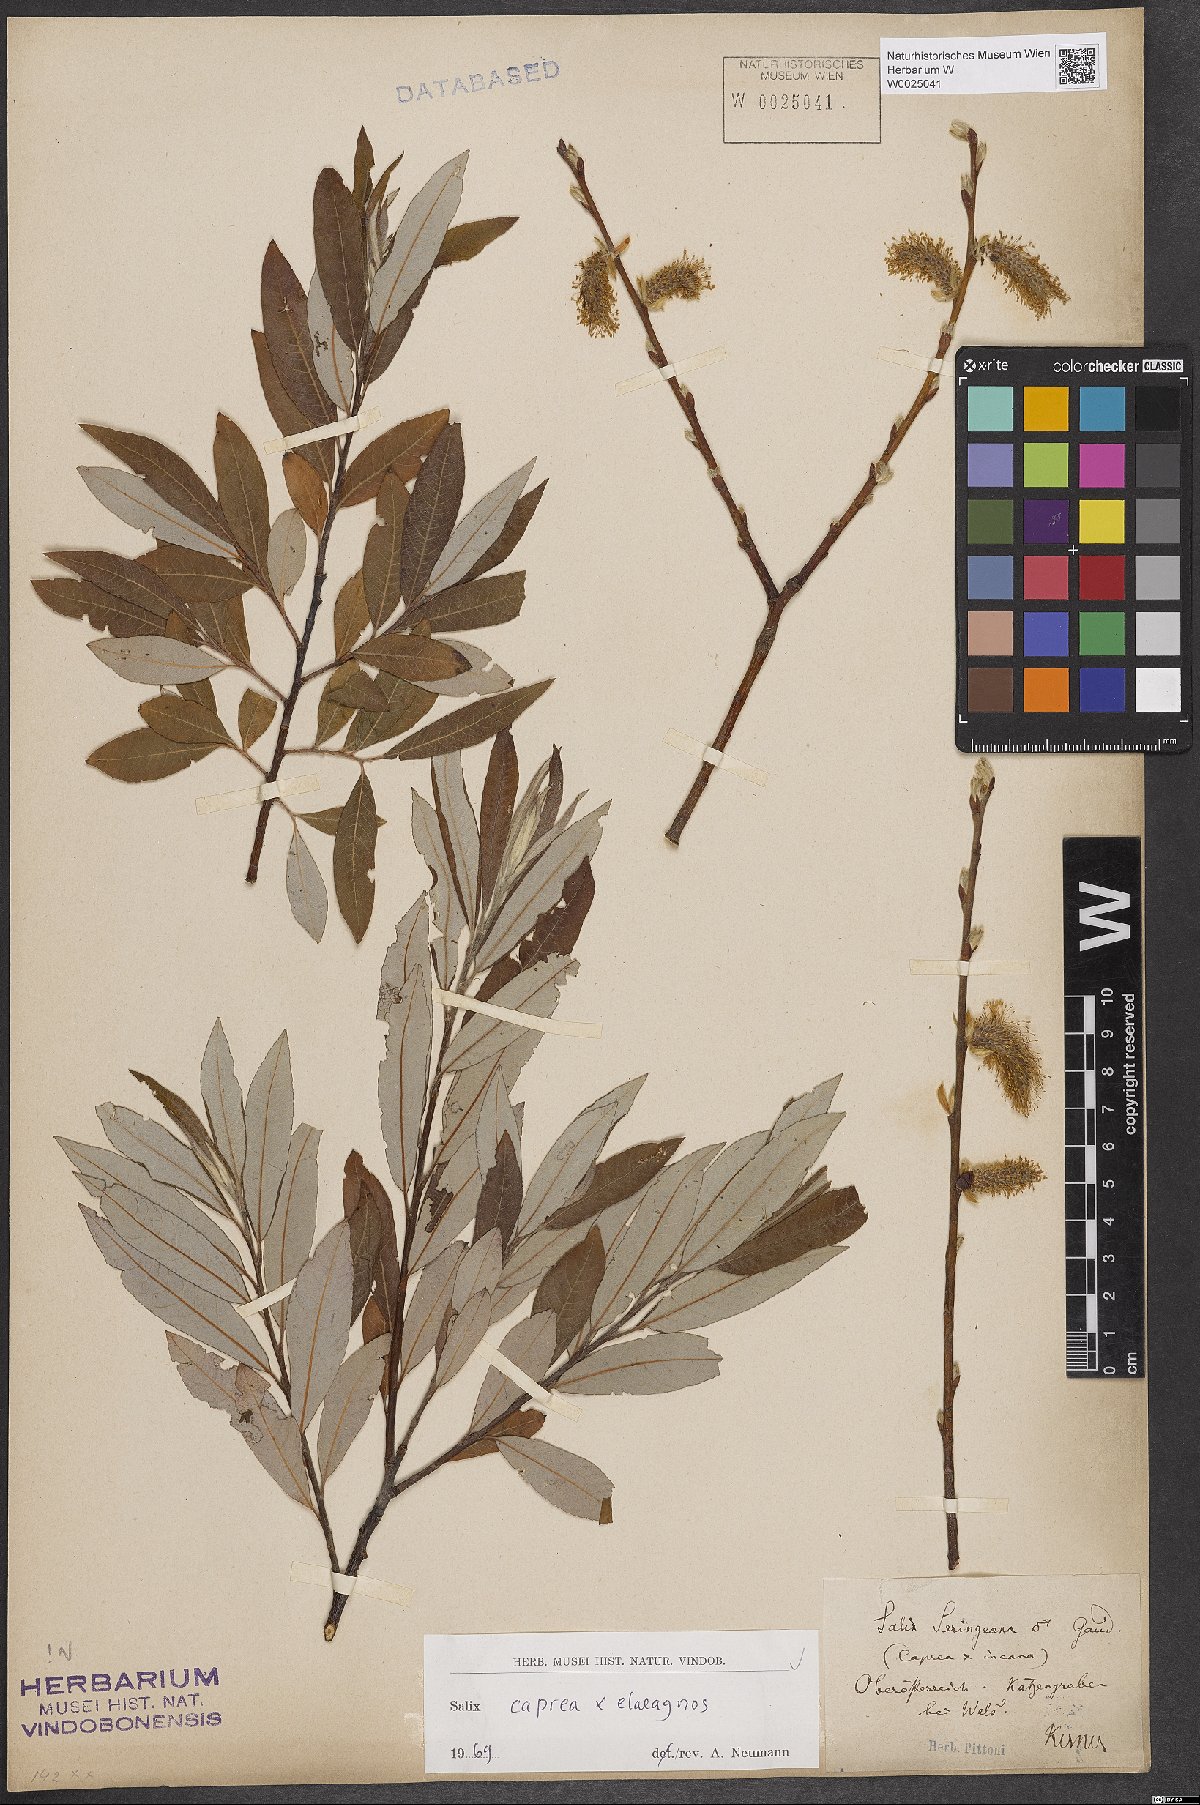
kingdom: Plantae
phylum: Tracheophyta
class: Magnoliopsida
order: Malpighiales
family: Salicaceae
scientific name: Salicaceae
